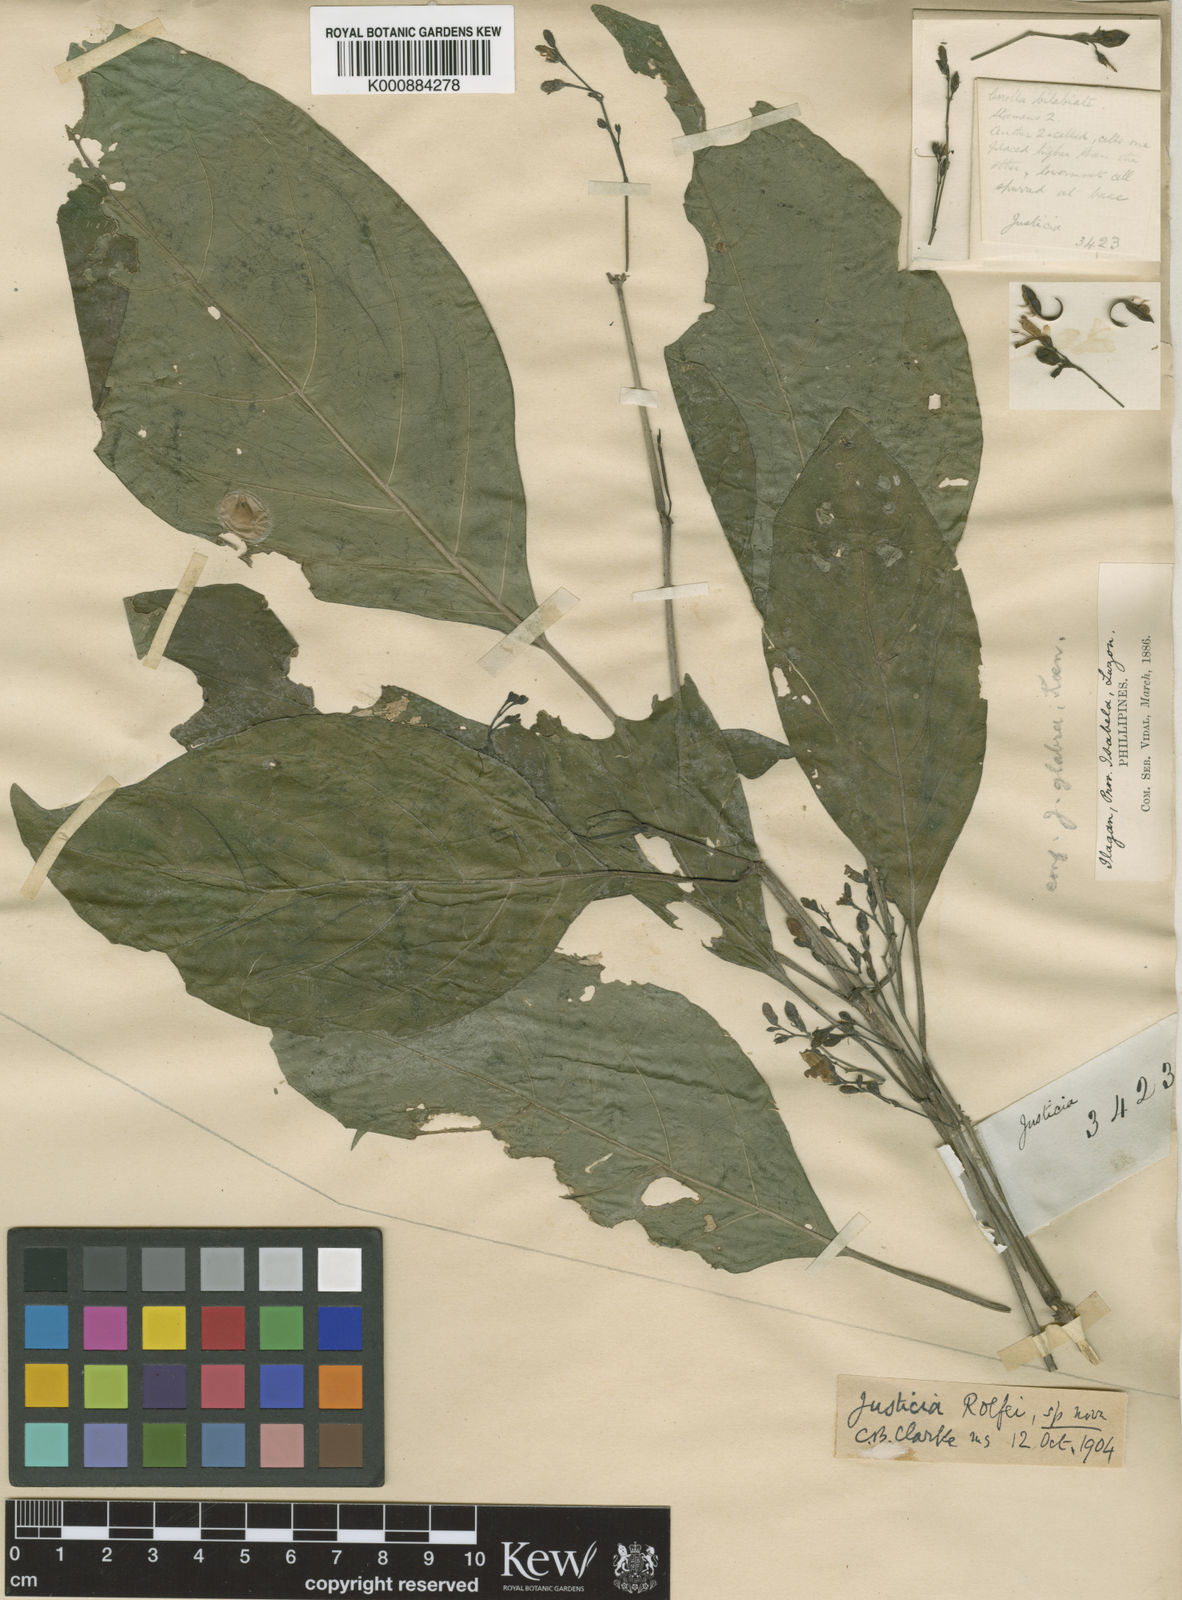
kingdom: Plantae
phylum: Tracheophyta
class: Magnoliopsida
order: Lamiales
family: Acanthaceae
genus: Justicia
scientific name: Justicia
